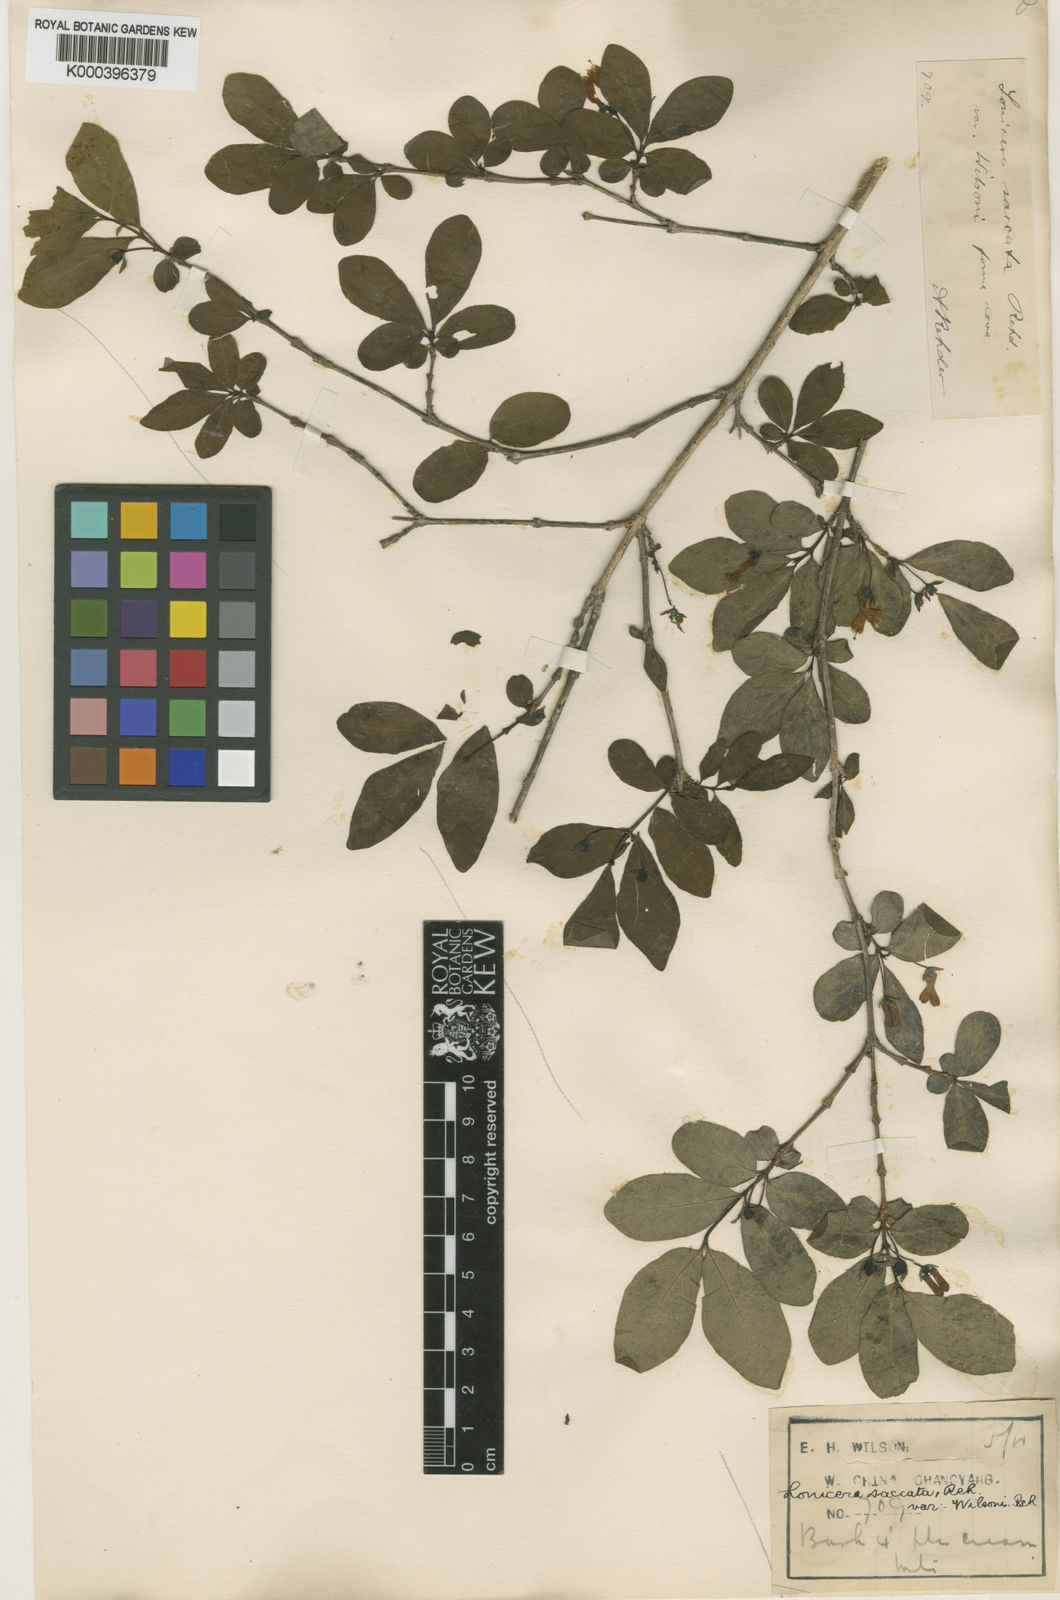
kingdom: Plantae
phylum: Tracheophyta
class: Magnoliopsida
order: Dipsacales
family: Caprifoliaceae
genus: Lonicera
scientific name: Lonicera tangutica
